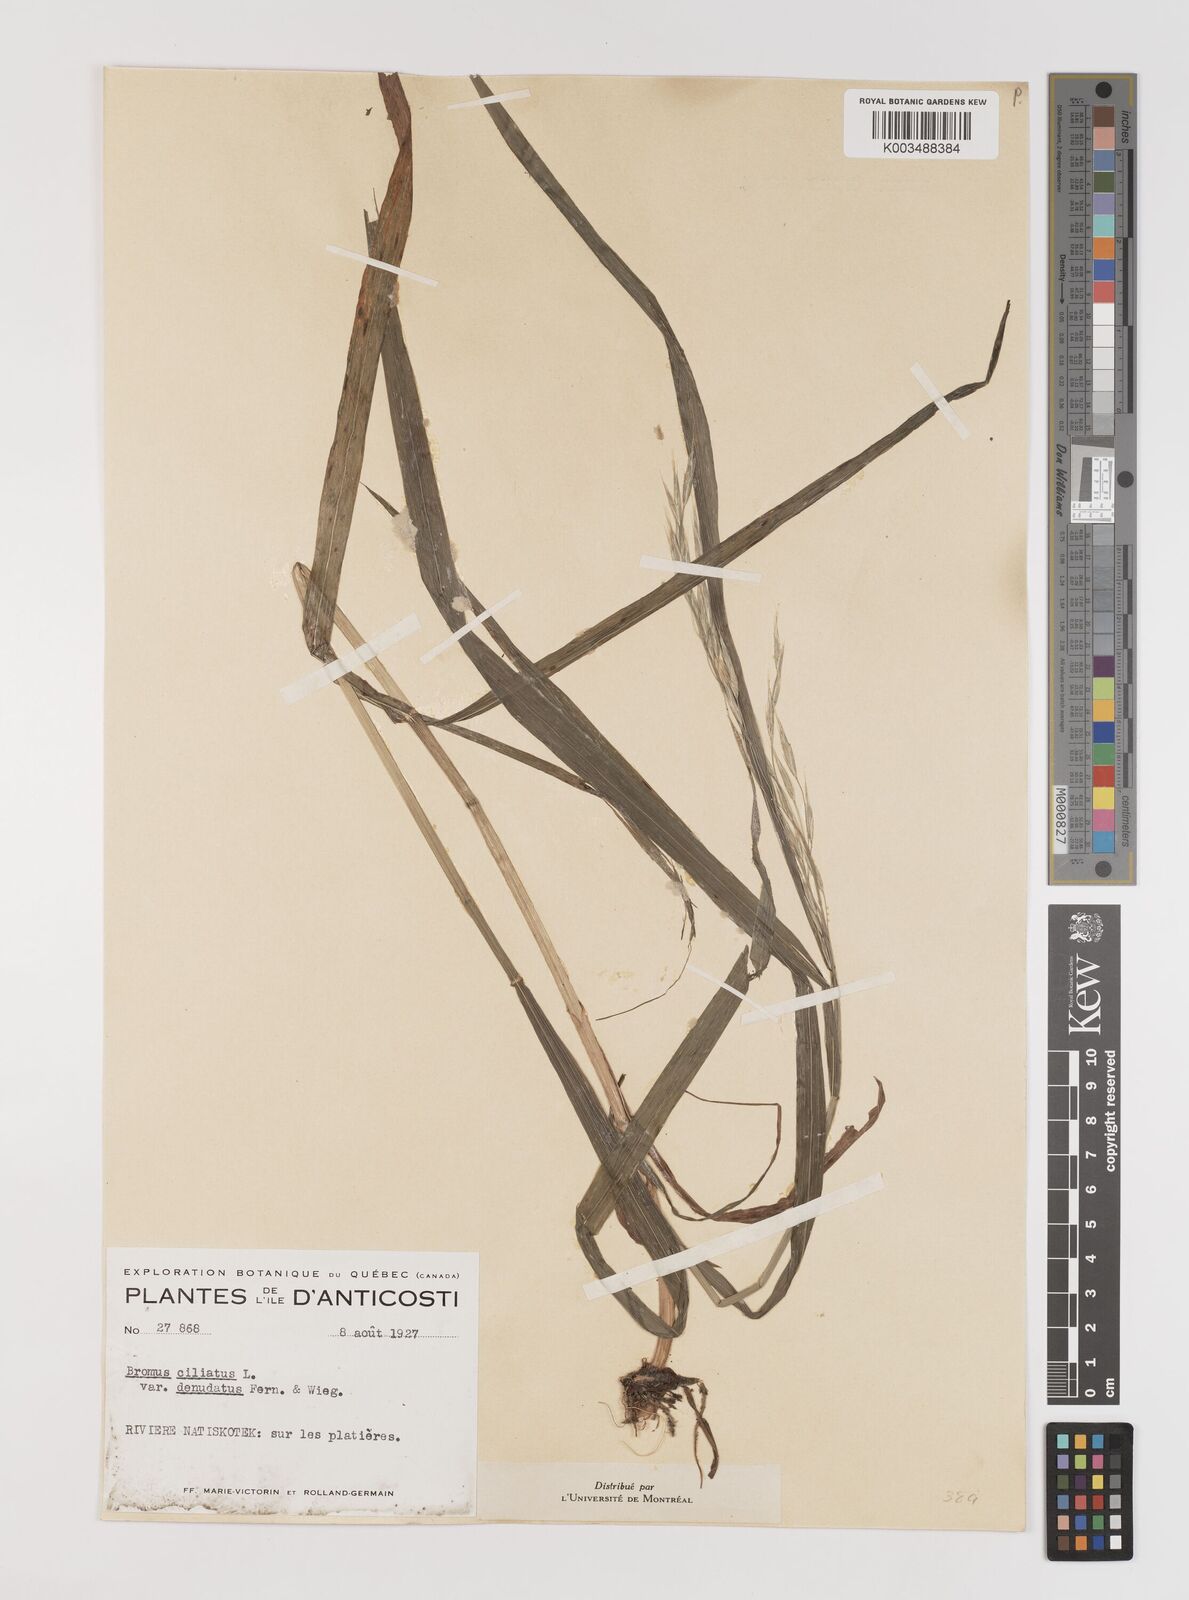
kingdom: Plantae
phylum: Tracheophyta
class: Liliopsida
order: Poales
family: Poaceae
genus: Bromus
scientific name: Bromus ciliatus
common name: Fringe brome
